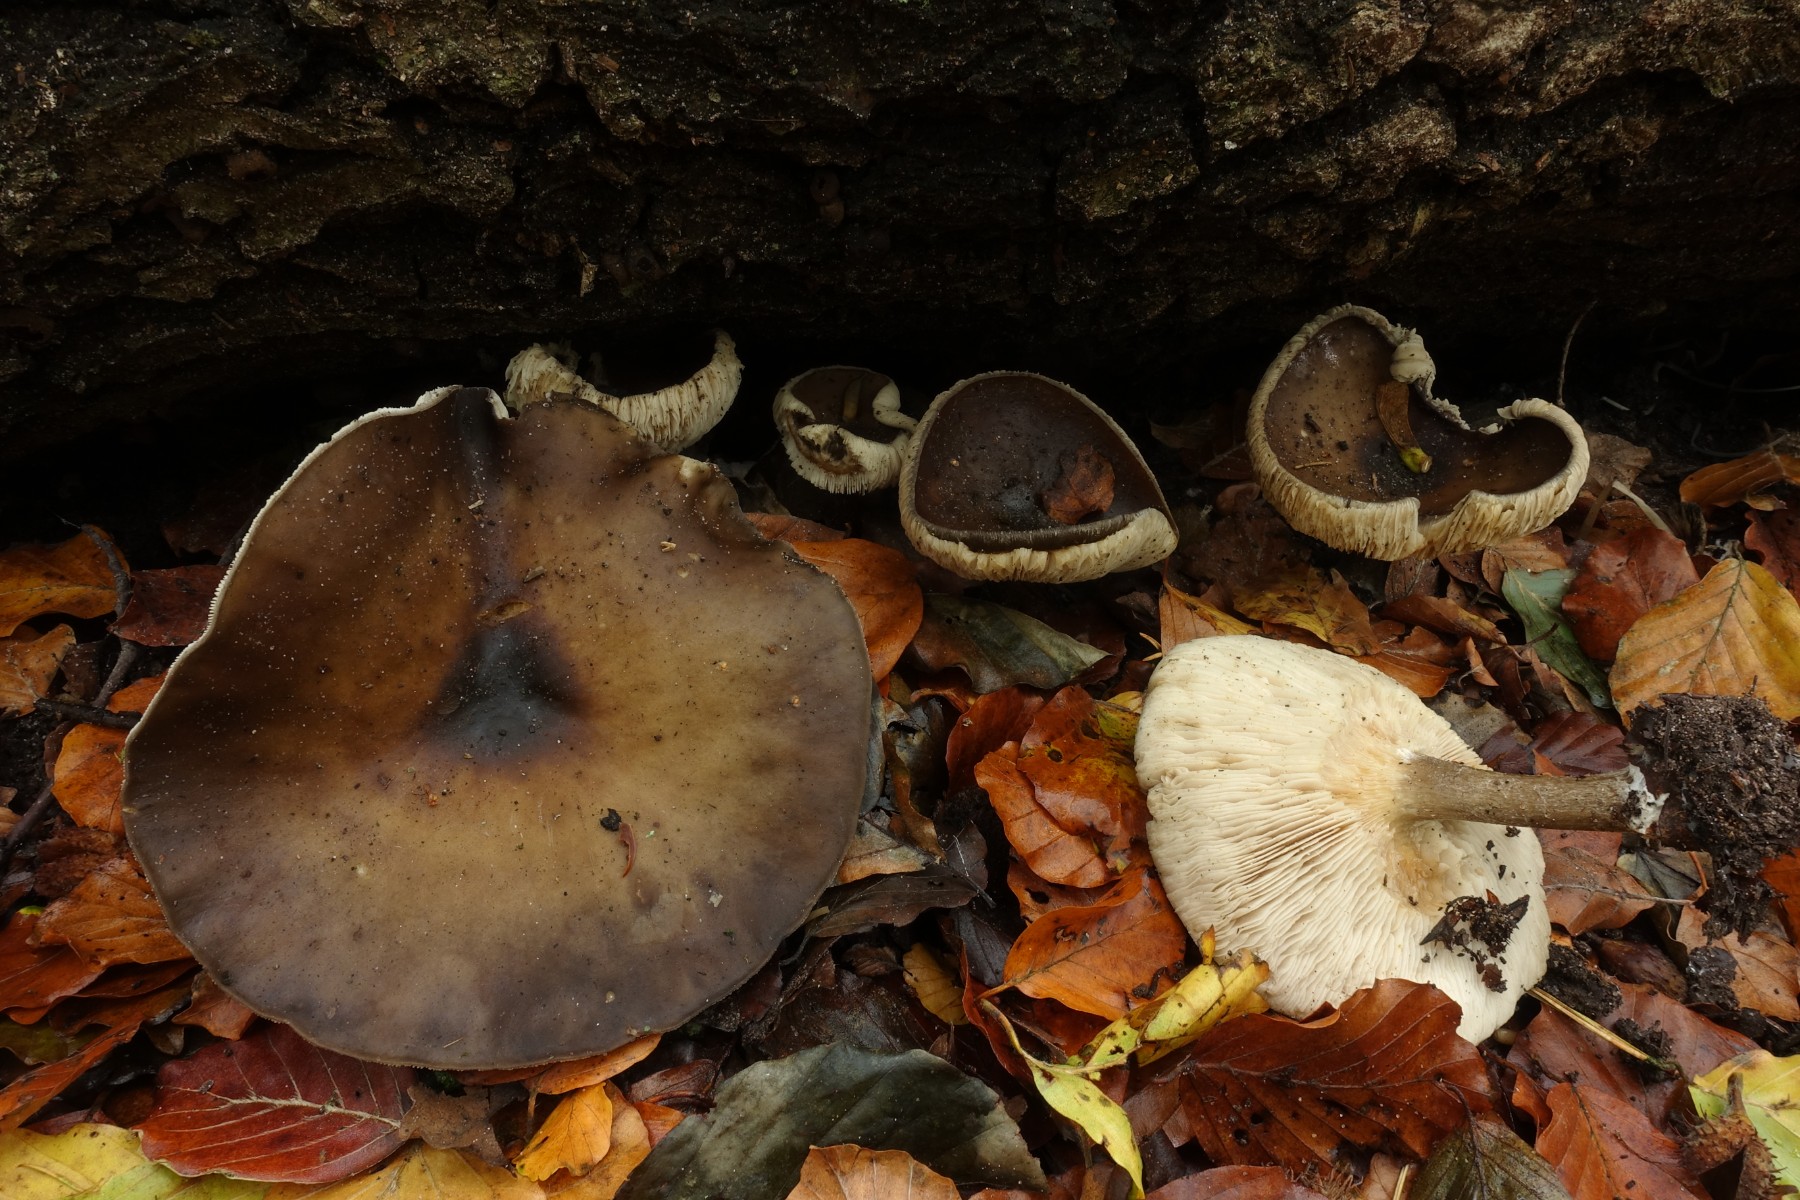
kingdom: Fungi
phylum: Basidiomycota
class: Agaricomycetes
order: Agaricales
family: Tricholomataceae
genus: Melanoleuca
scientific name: Melanoleuca polioleuca
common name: almindelig munkehat
